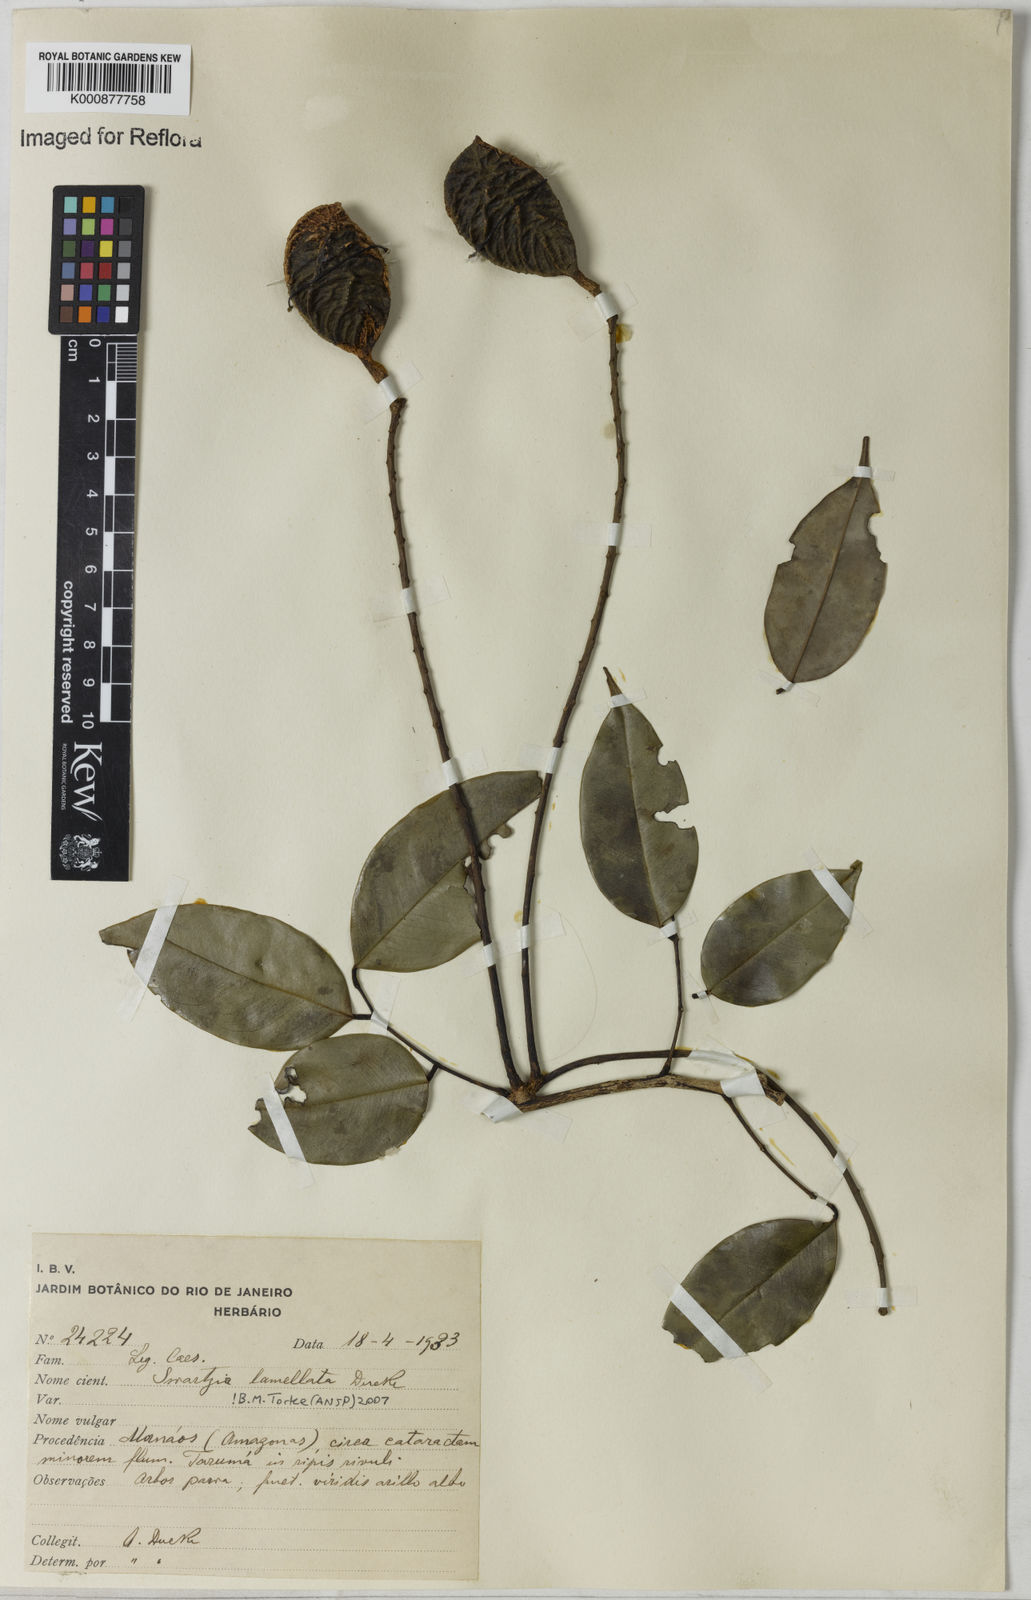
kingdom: Plantae
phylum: Tracheophyta
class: Magnoliopsida
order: Fabales
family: Fabaceae
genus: Swartzia
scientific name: Swartzia lamellata
